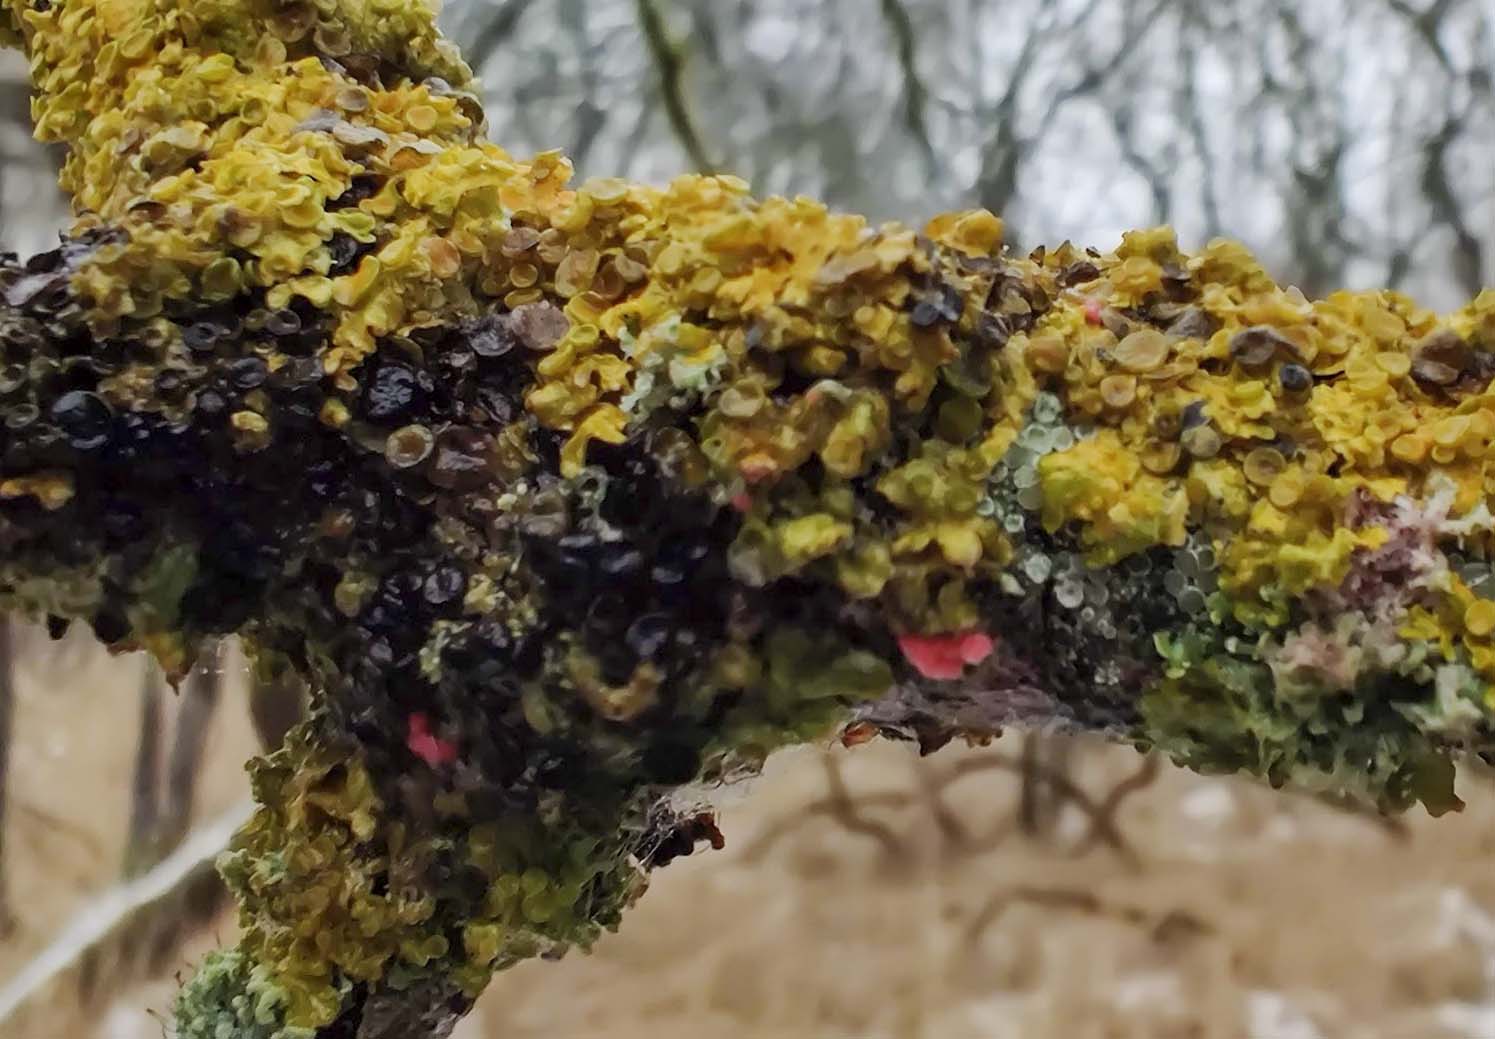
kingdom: Fungi
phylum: Ascomycota
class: Sordariomycetes
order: Hypocreales
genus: Illosporiopsis
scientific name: Illosporiopsis christiansenii
